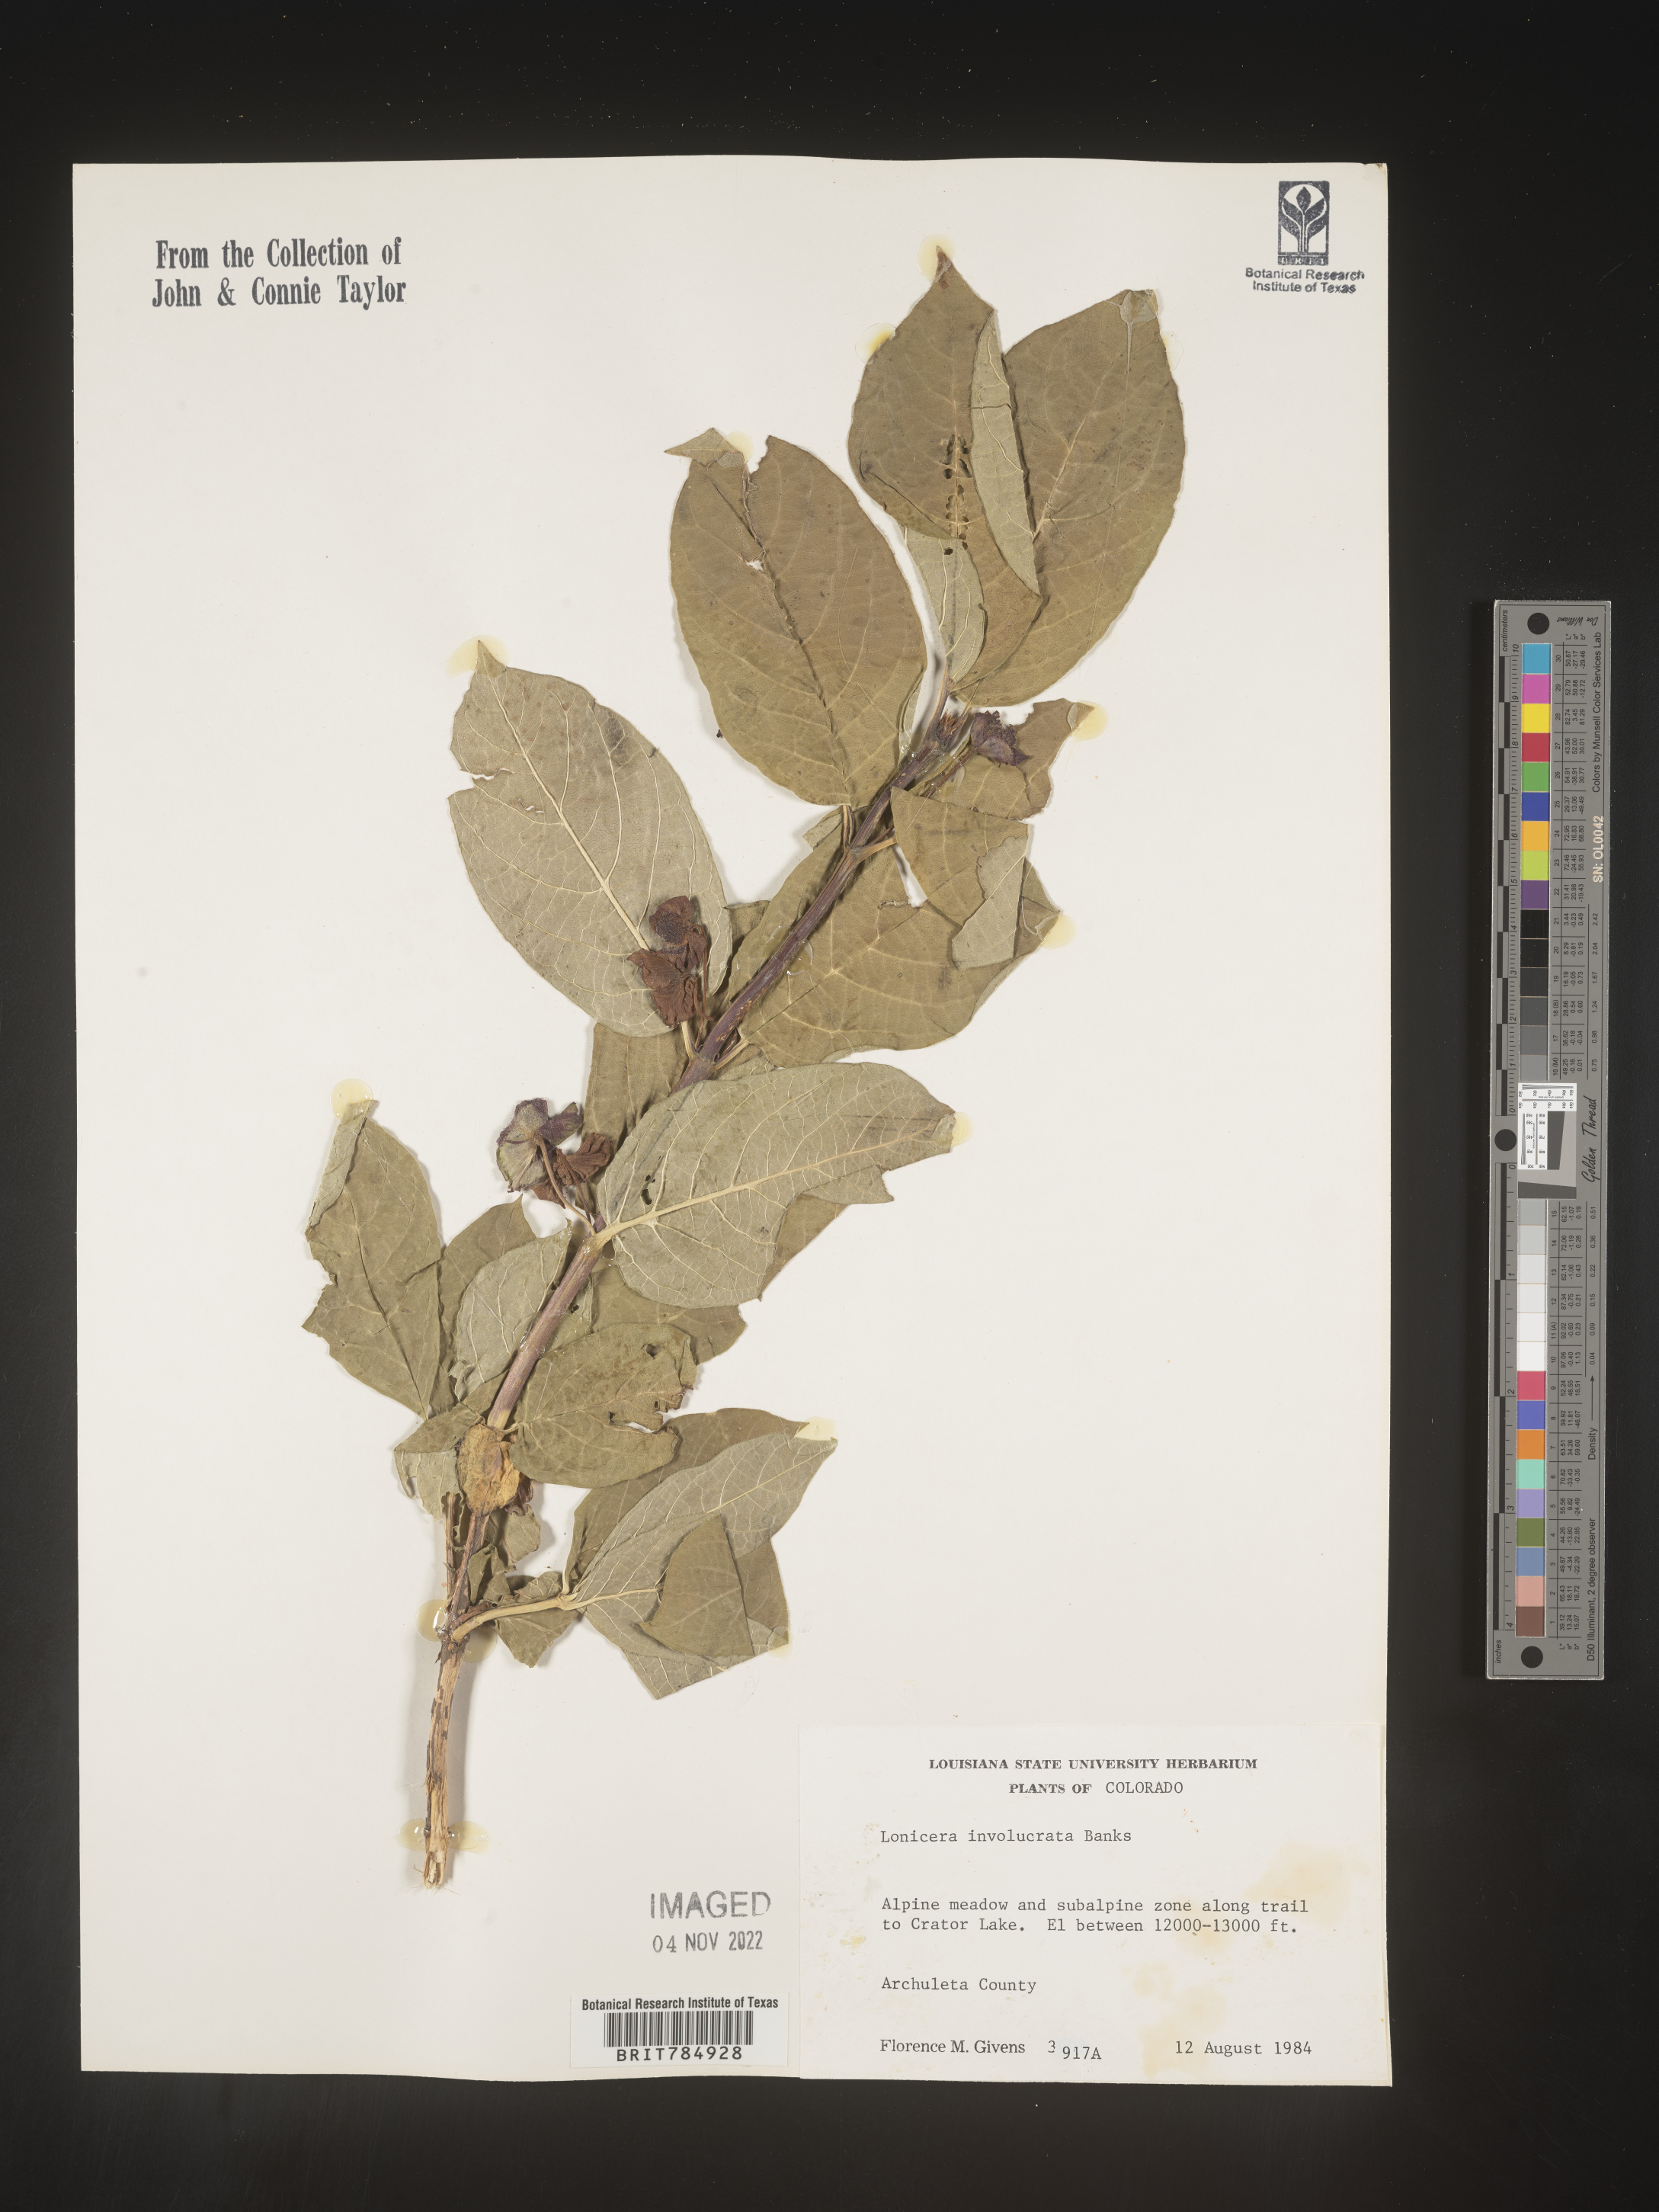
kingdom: Plantae
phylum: Tracheophyta
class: Magnoliopsida
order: Dipsacales
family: Caprifoliaceae
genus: Lonicera
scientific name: Lonicera involucrata
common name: Californian honeysuckle
